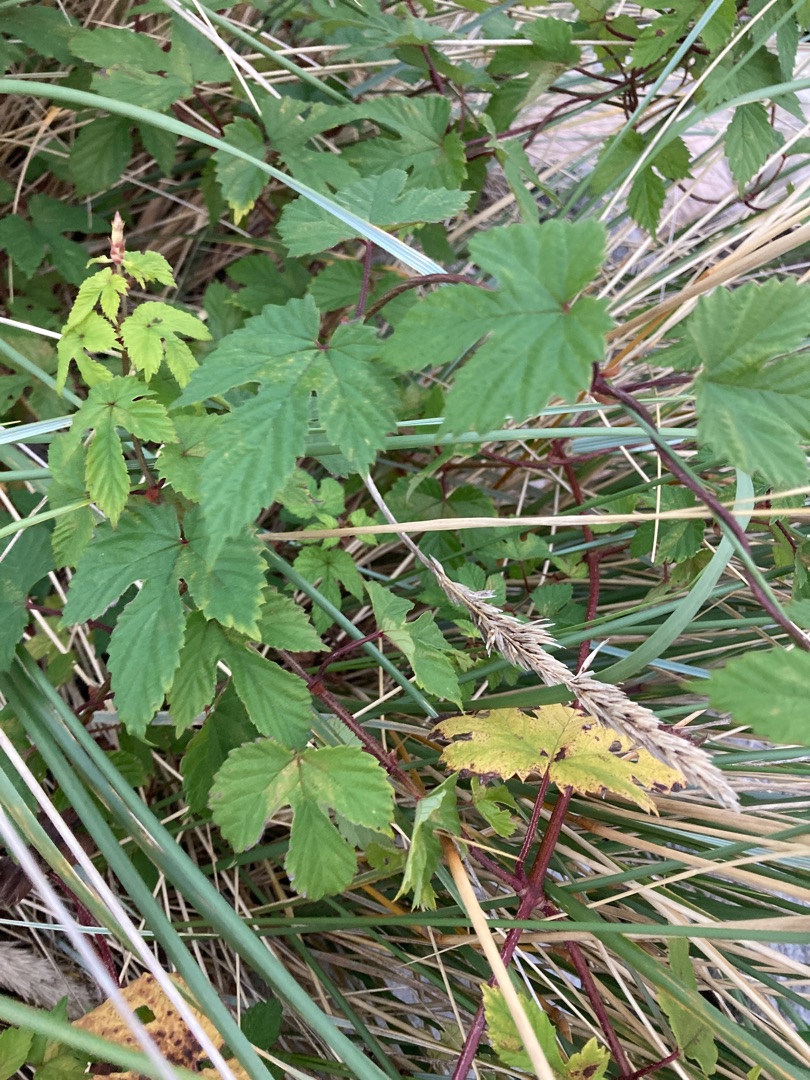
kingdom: Plantae
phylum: Tracheophyta
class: Magnoliopsida
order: Rosales
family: Cannabaceae
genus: Humulus
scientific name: Humulus lupulus
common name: Humle
